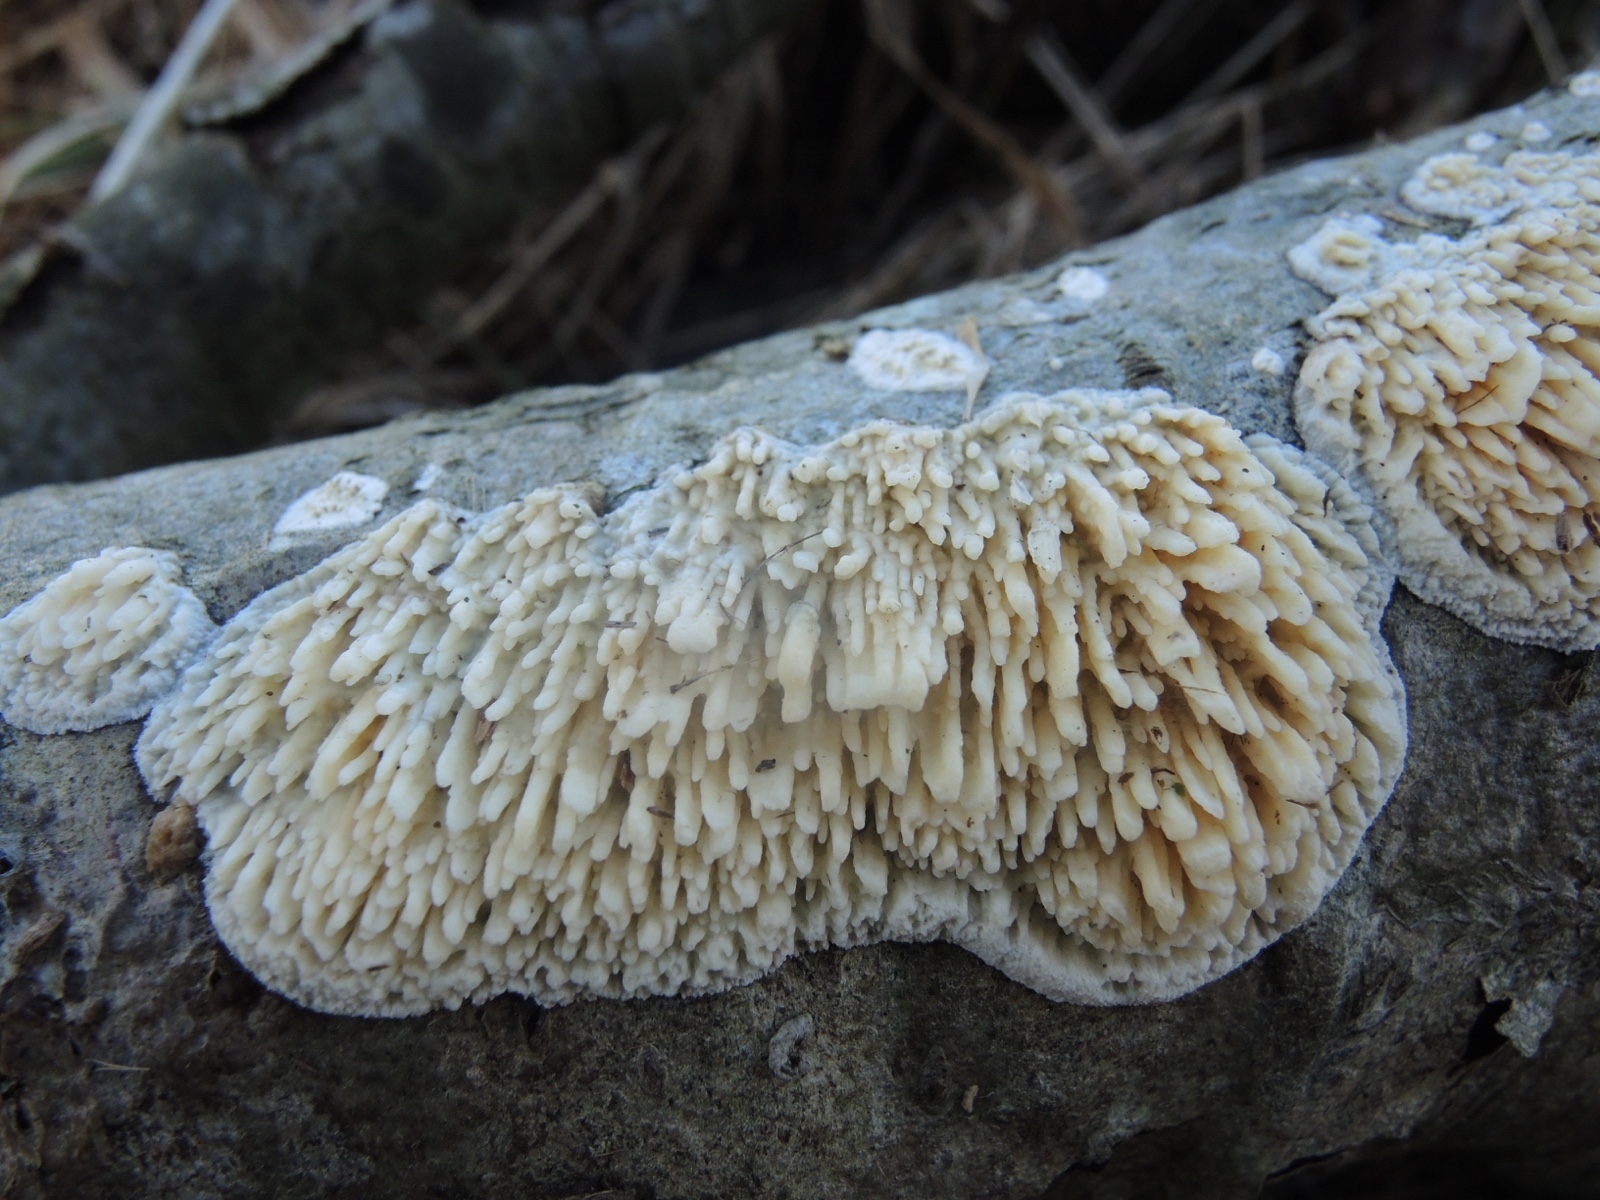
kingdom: Fungi
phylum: Basidiomycota
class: Agaricomycetes
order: Hymenochaetales
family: Schizoporaceae
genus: Xylodon
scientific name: Xylodon radula
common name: grovtandet kalkskind
